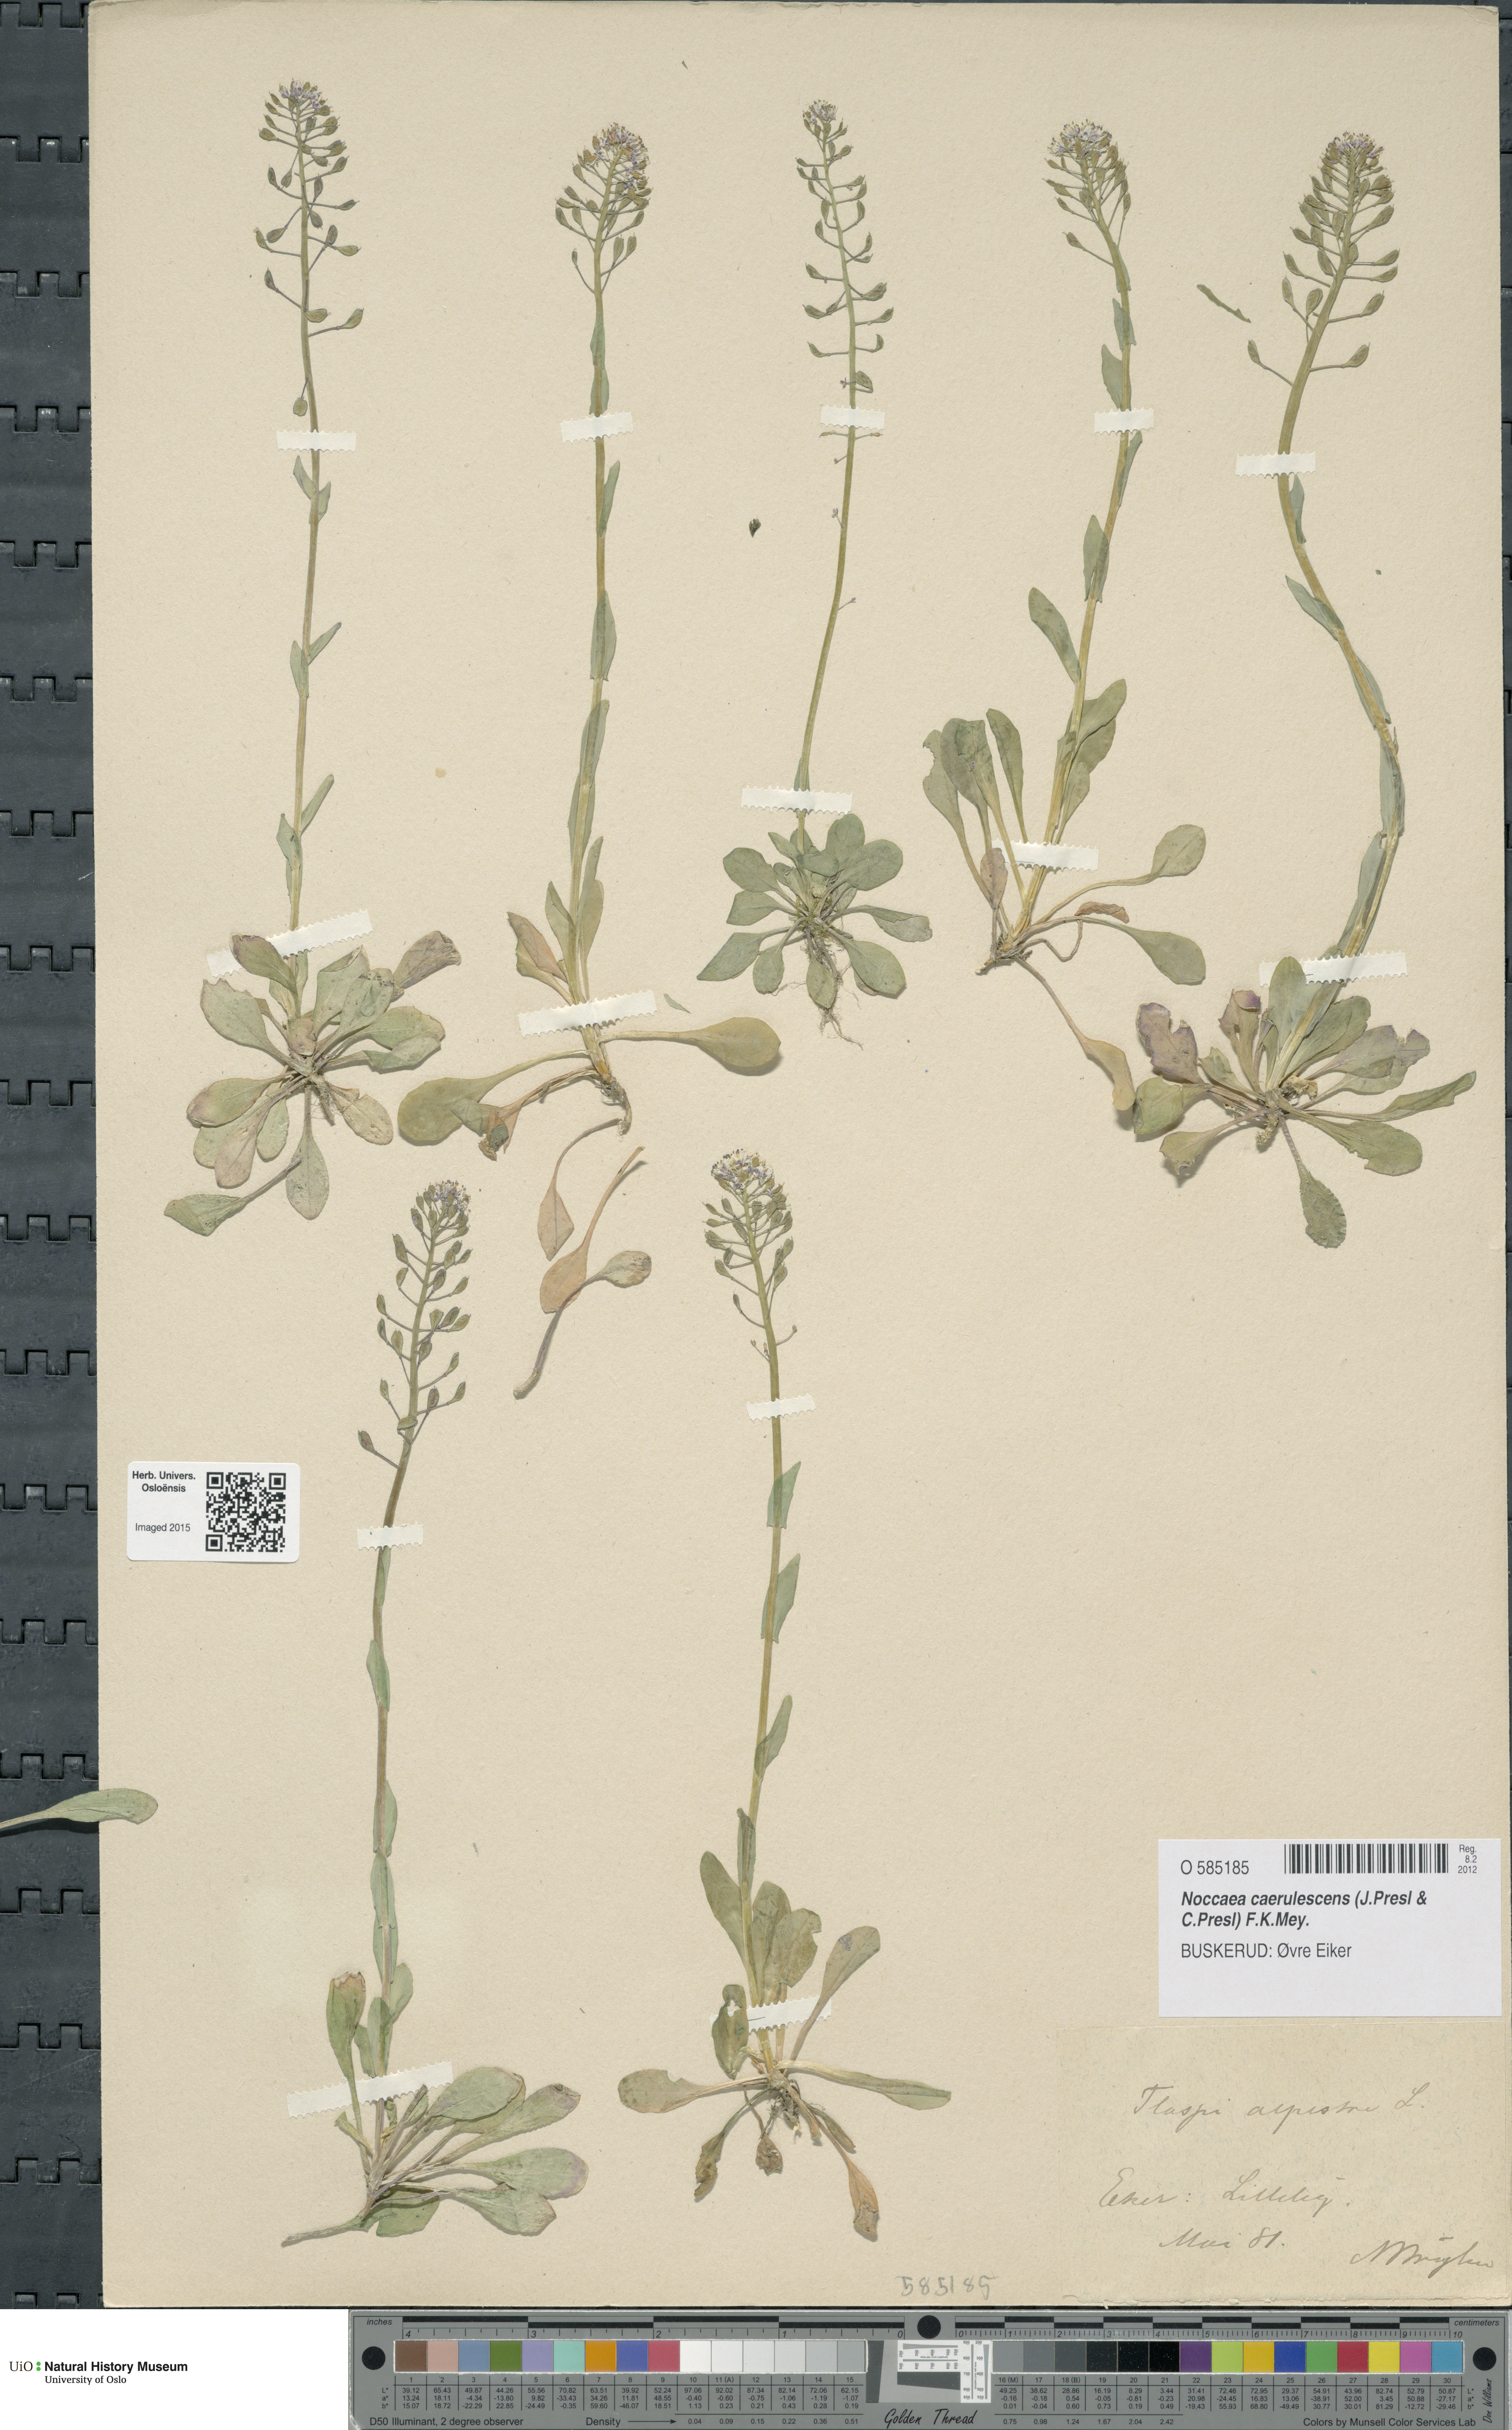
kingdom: Plantae
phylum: Tracheophyta
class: Magnoliopsida
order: Brassicales
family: Brassicaceae
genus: Noccaea
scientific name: Noccaea caerulescens
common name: Alpine pennycress
